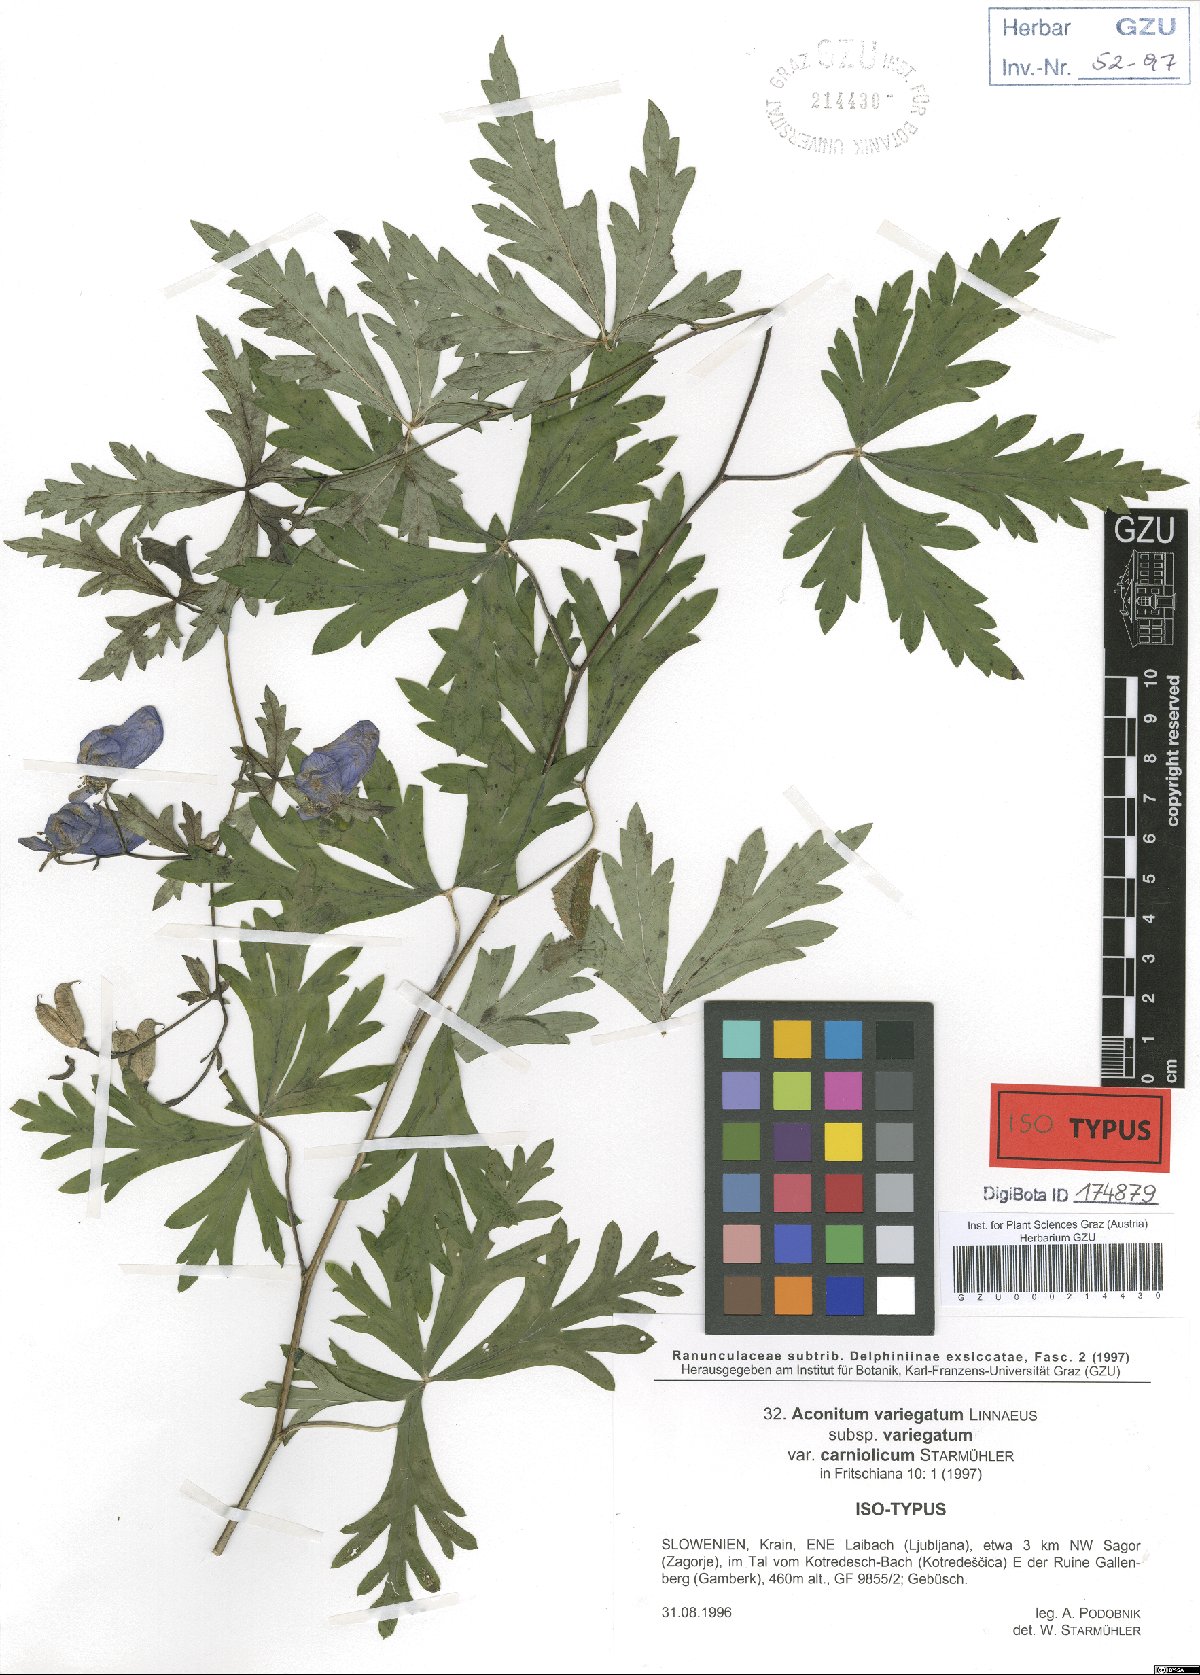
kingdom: Plantae
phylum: Tracheophyta
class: Magnoliopsida
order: Ranunculales
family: Ranunculaceae
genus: Aconitum
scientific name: Aconitum variegatum
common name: Manchurian monkshood
